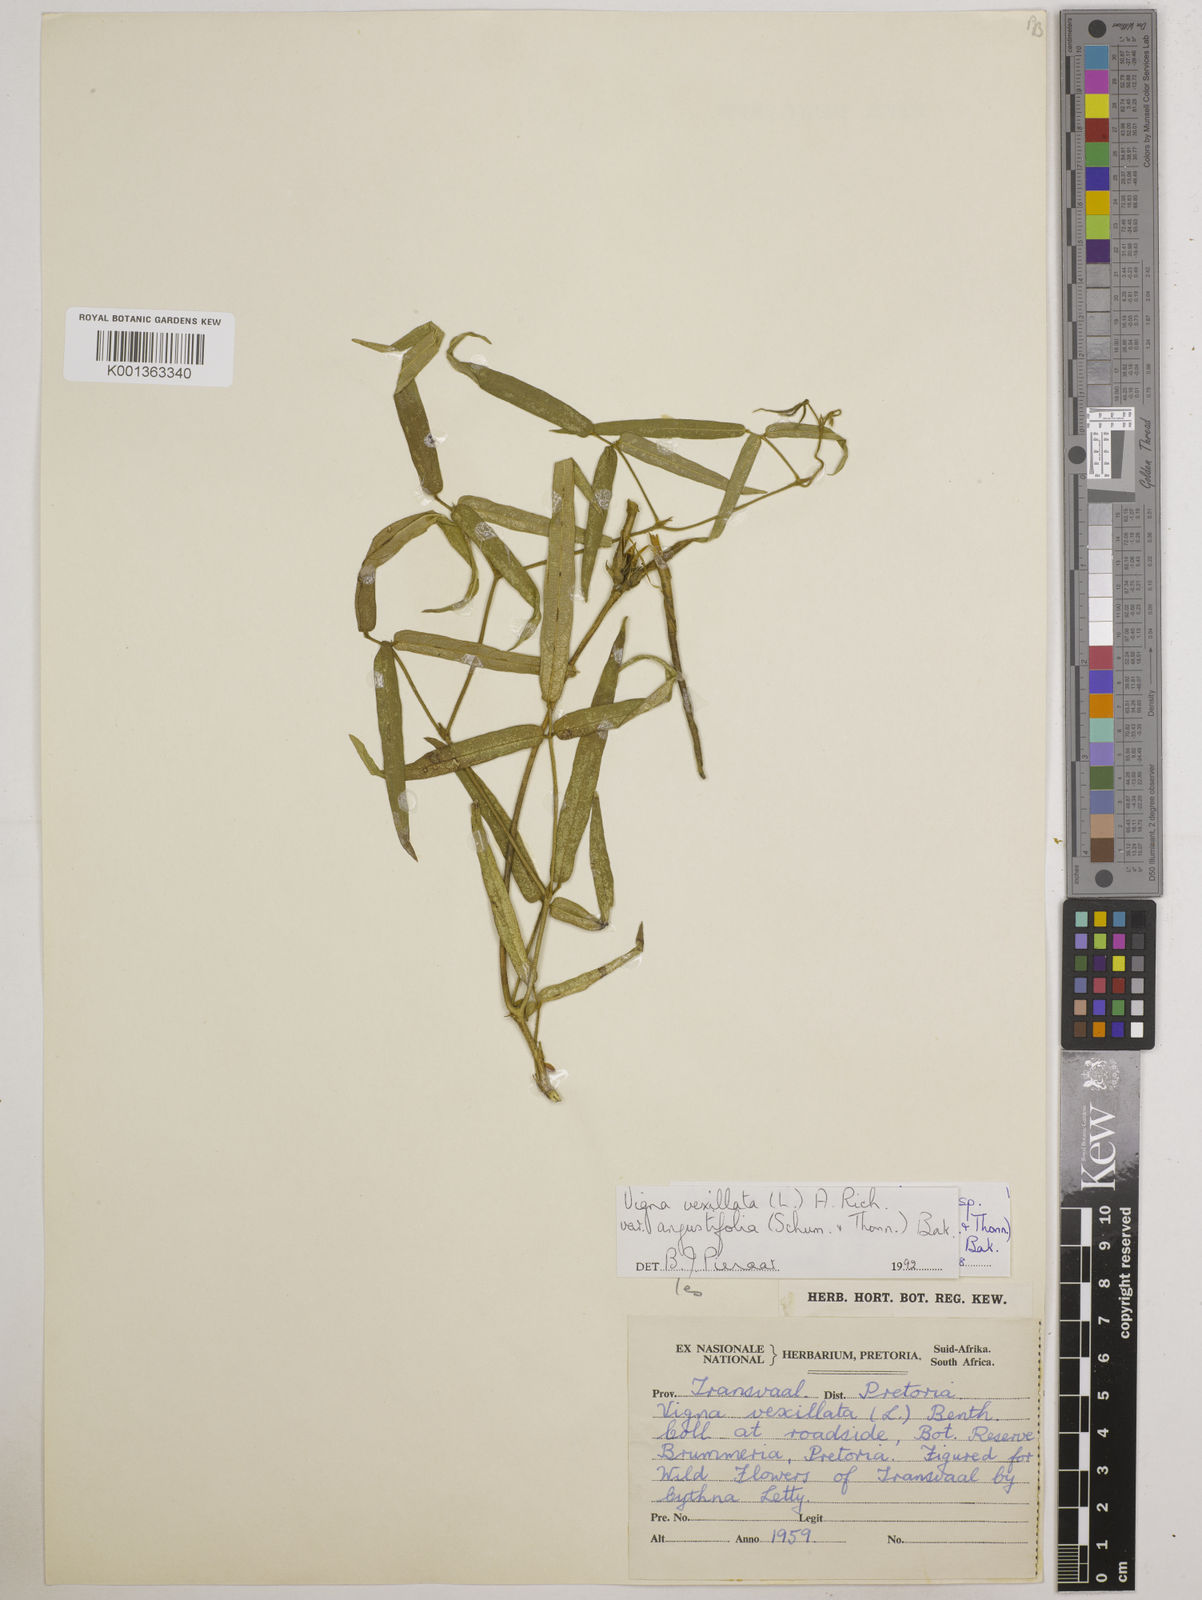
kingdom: Plantae
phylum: Tracheophyta
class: Magnoliopsida
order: Fabales
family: Fabaceae
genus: Vigna
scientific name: Vigna
